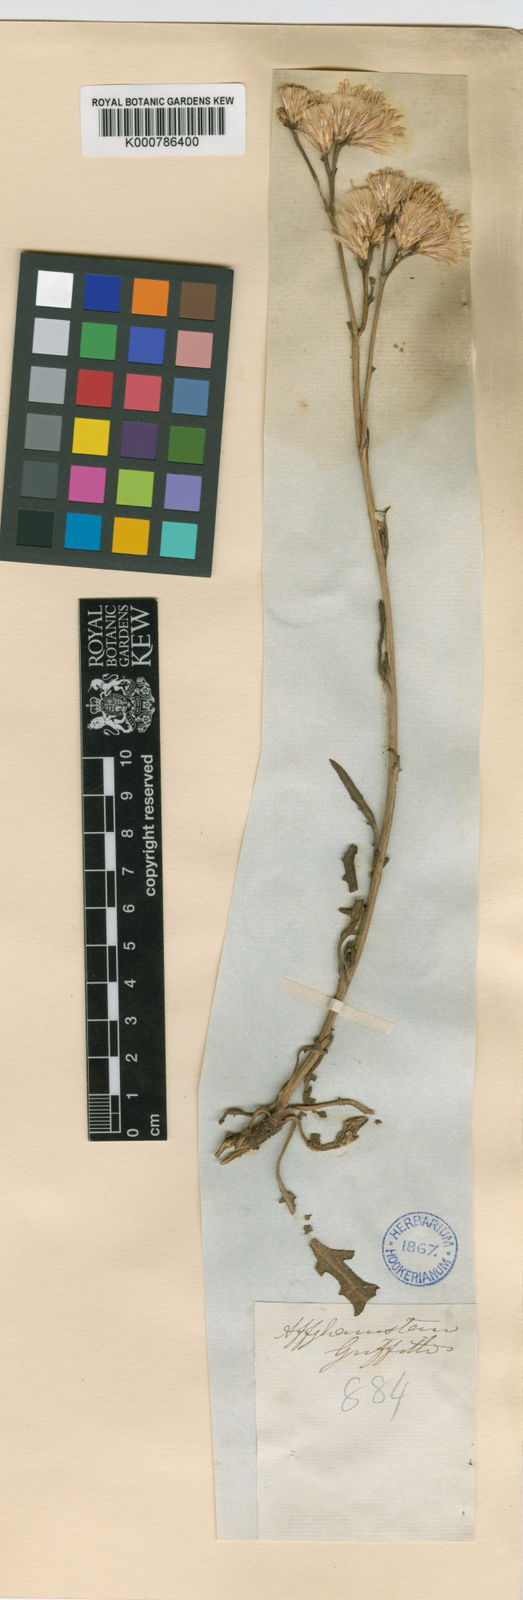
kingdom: Plantae
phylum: Tracheophyta
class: Magnoliopsida
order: Asterales
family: Asteraceae
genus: Saussurea
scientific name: Saussurea griffithii
